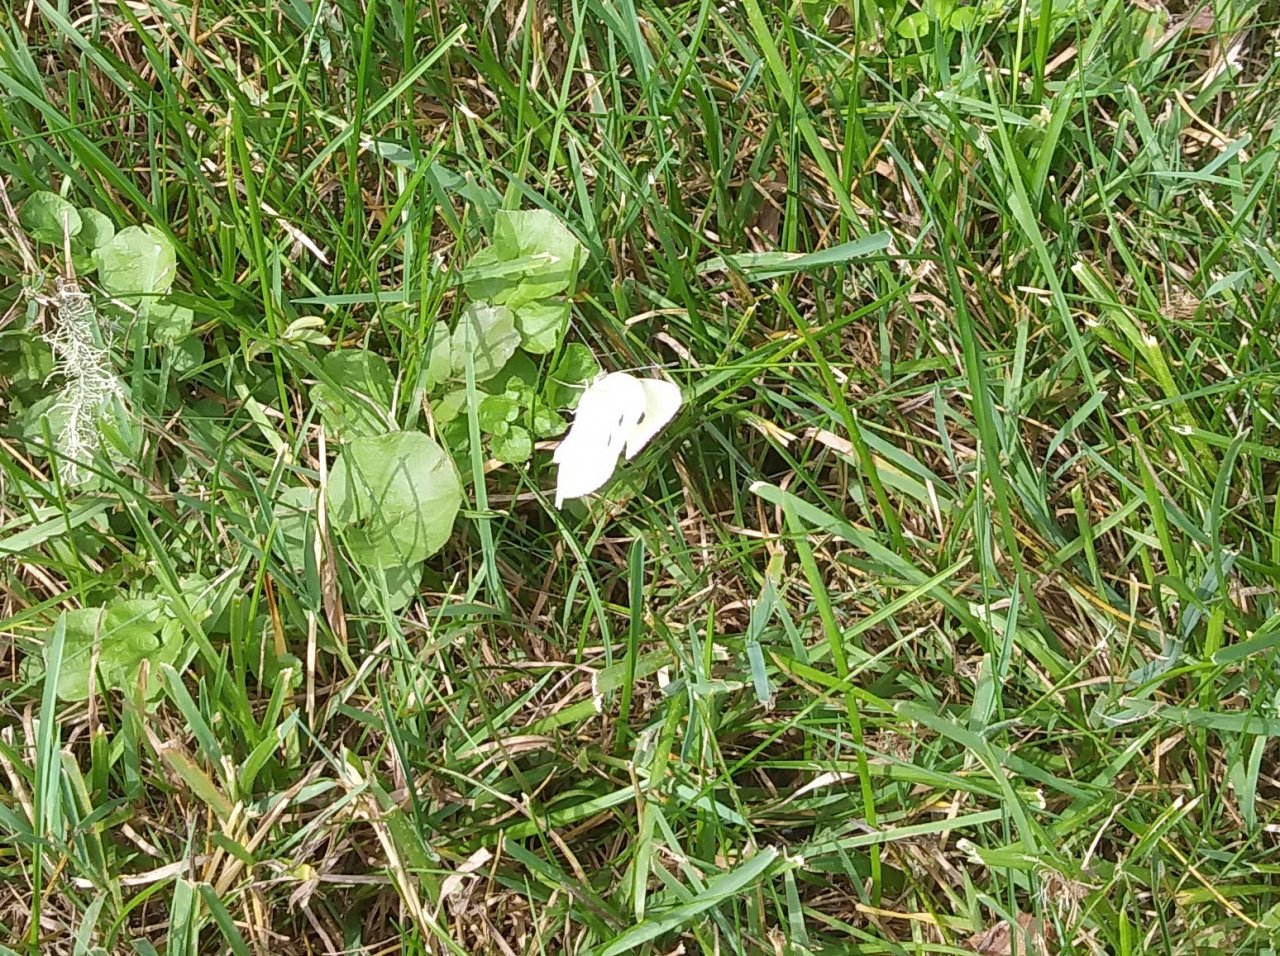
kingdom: Animalia
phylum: Arthropoda
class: Insecta
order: Lepidoptera
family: Pieridae
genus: Pieris
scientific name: Pieris rapae
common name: Cabbage White
